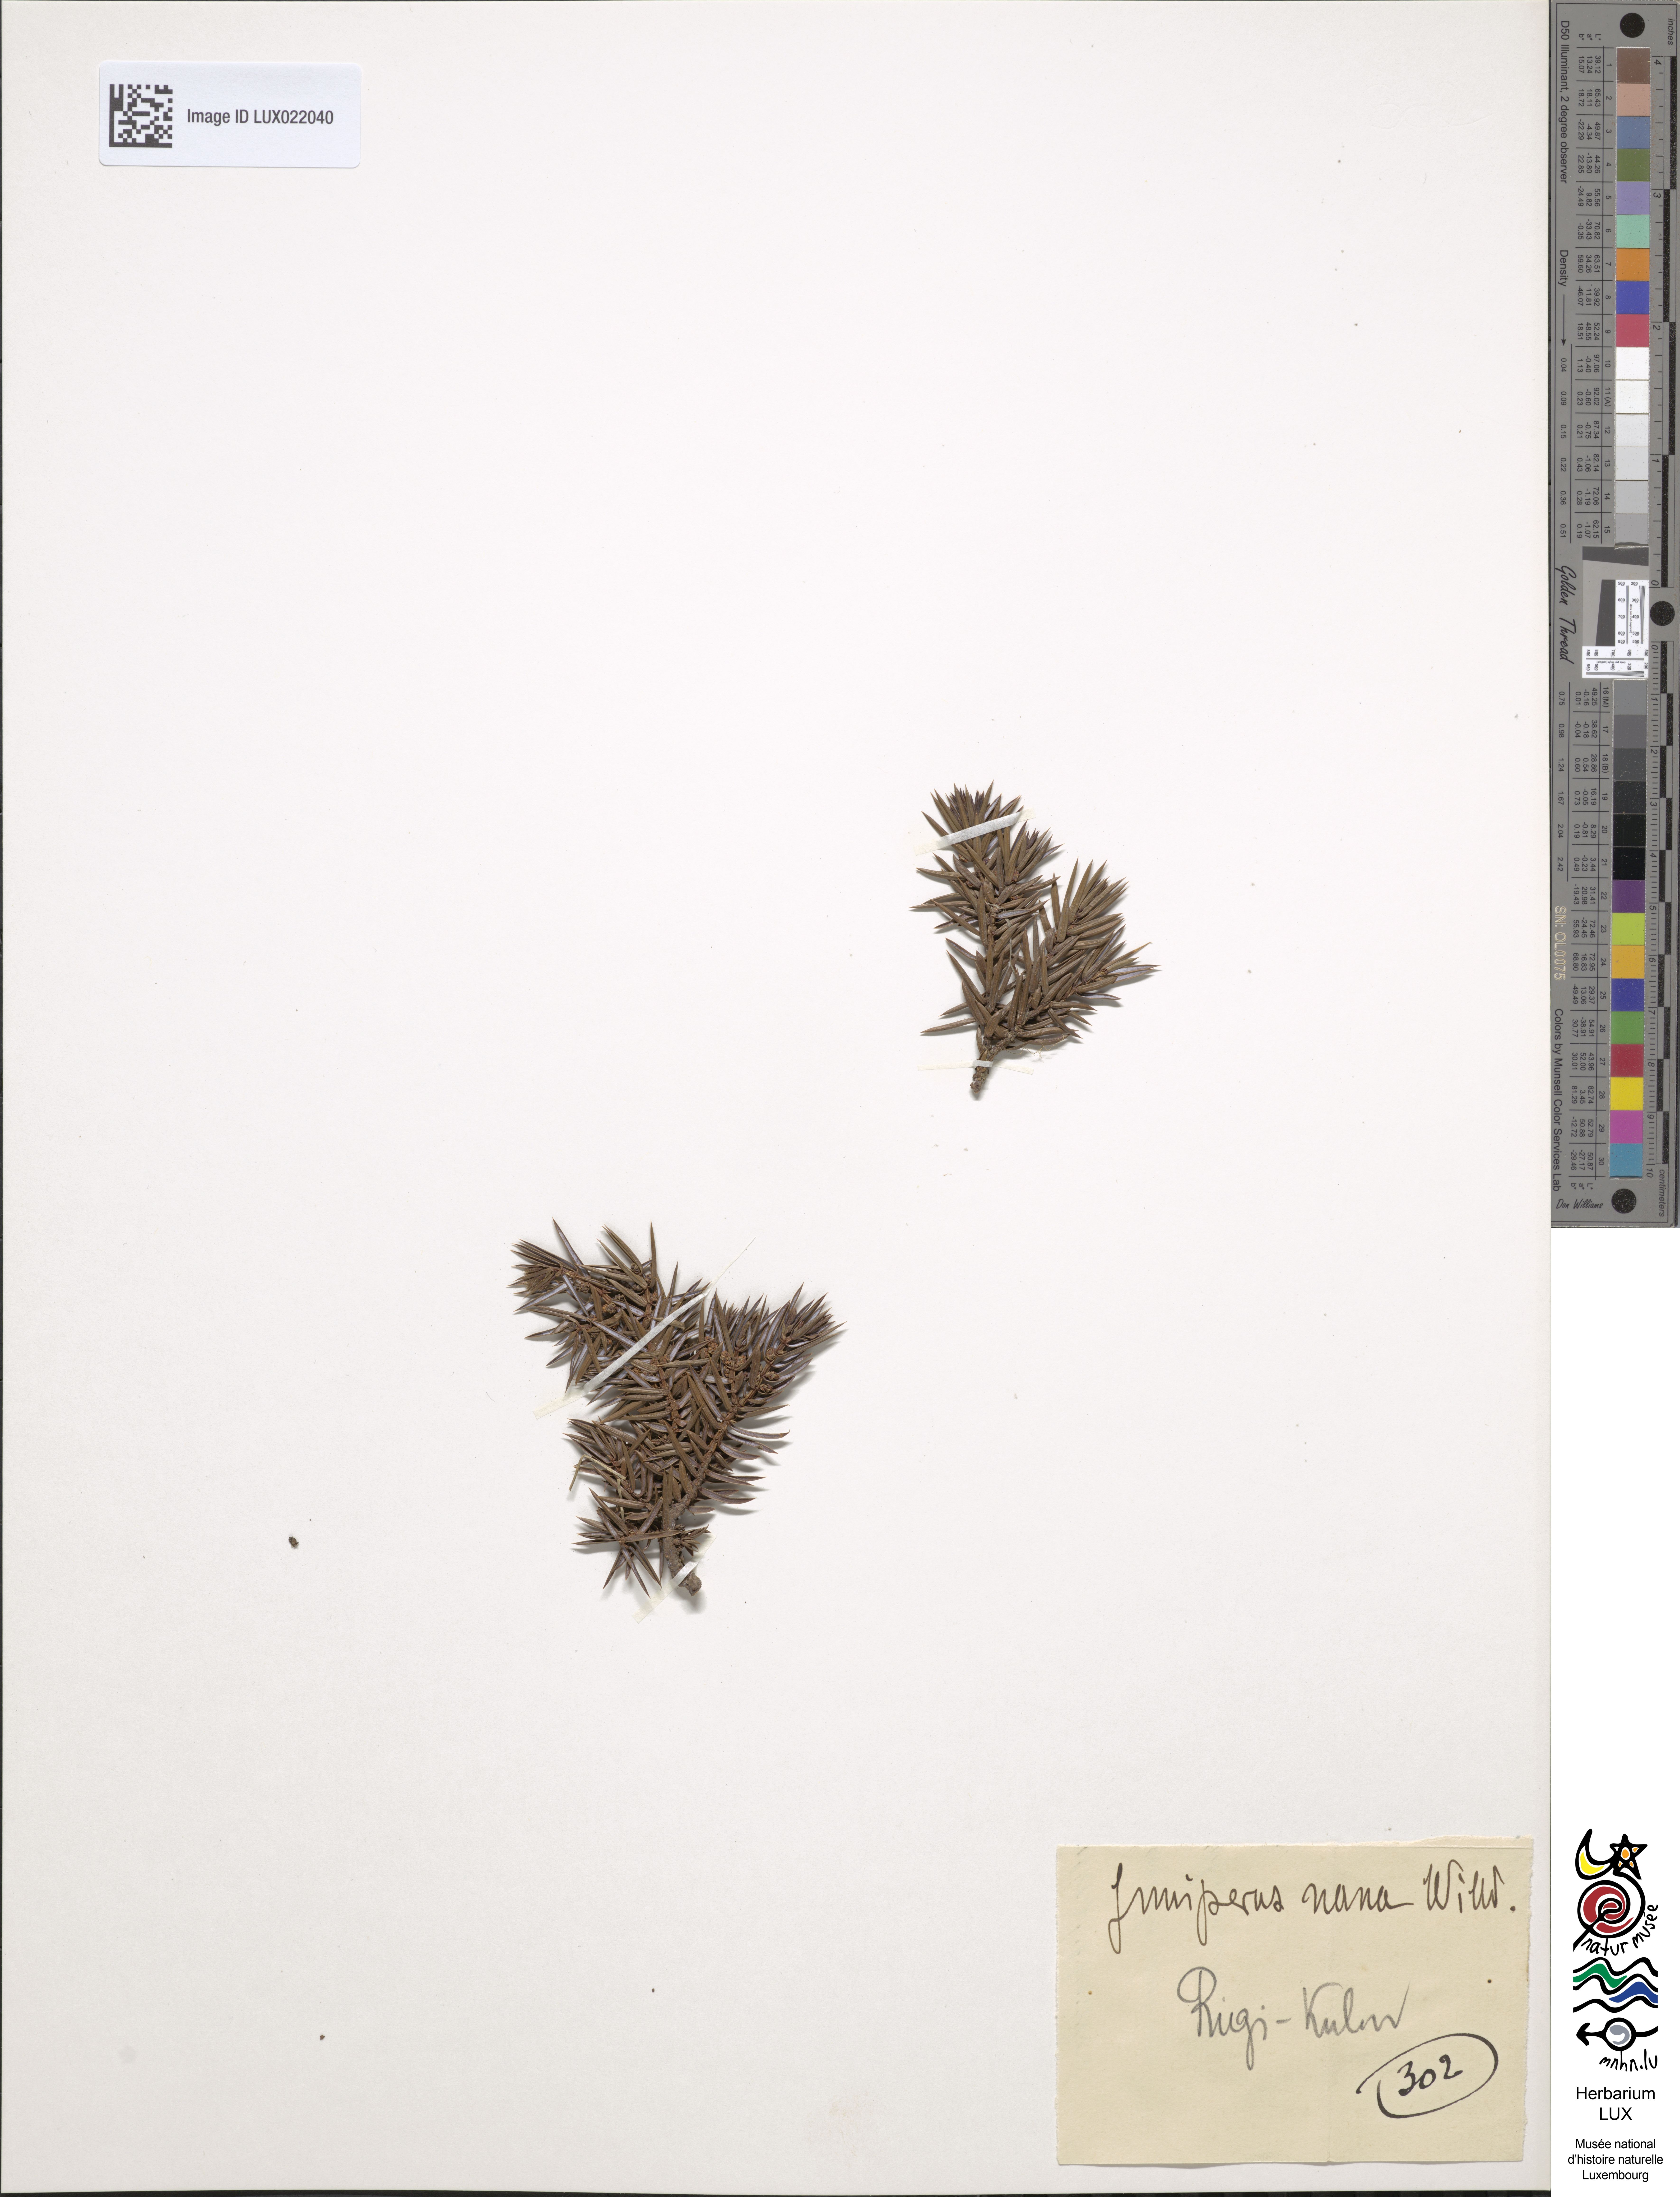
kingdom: Plantae
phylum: Tracheophyta
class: Pinopsida
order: Pinales
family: Cupressaceae
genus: Juniperus
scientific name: Juniperus communis
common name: Common juniper
